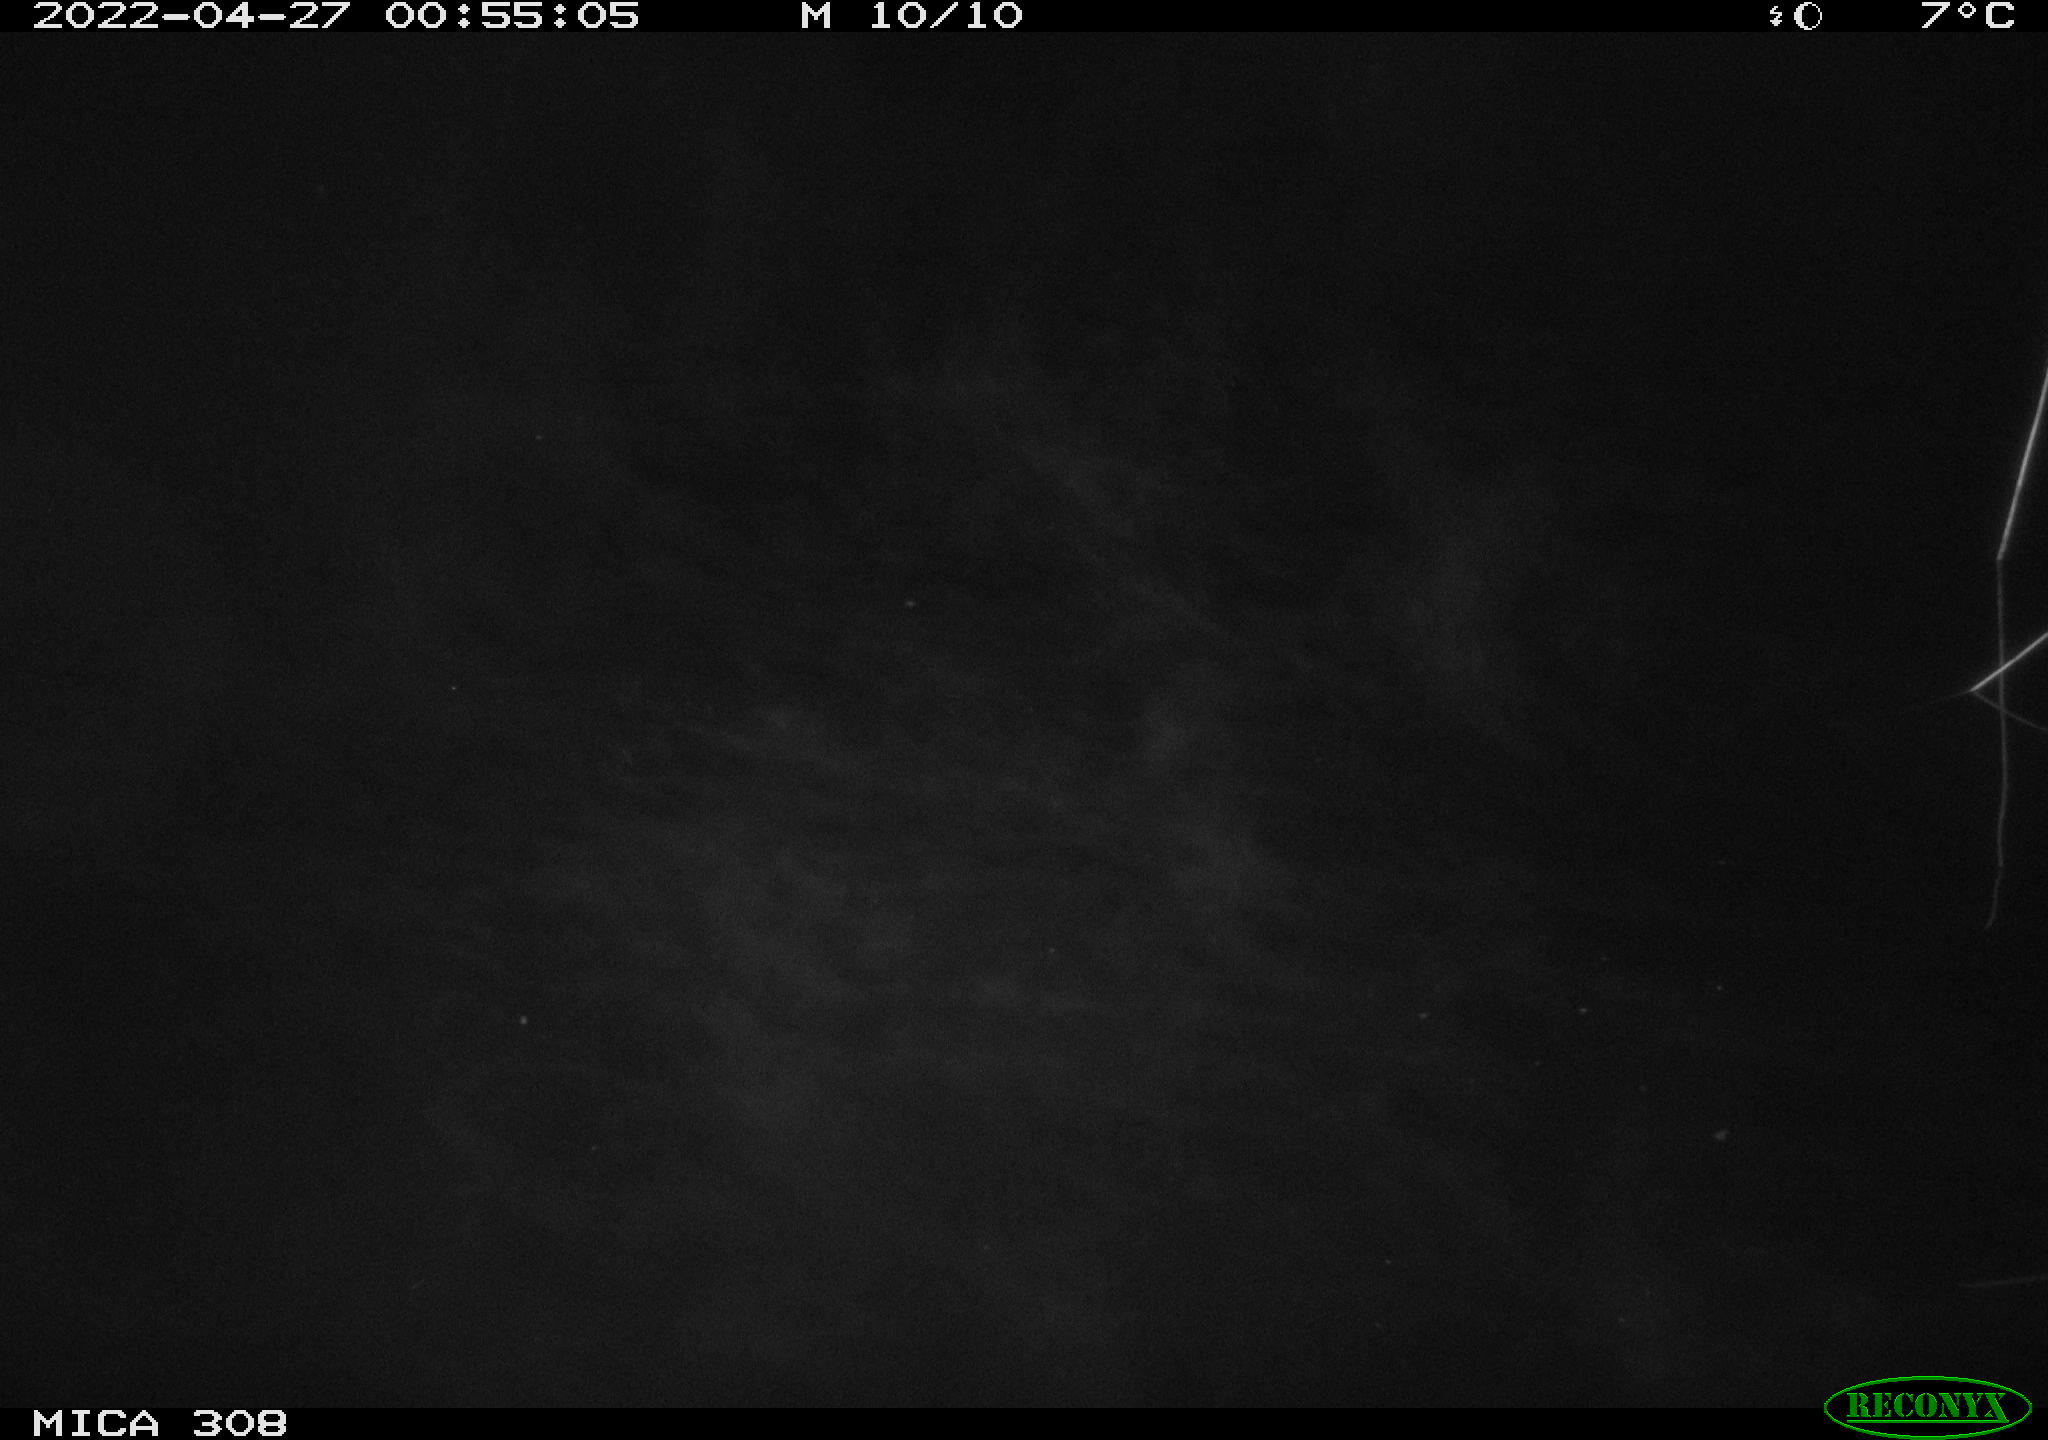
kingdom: Animalia
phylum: Chordata
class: Aves
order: Anseriformes
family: Anatidae
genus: Anas
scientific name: Anas platyrhynchos
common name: Mallard
